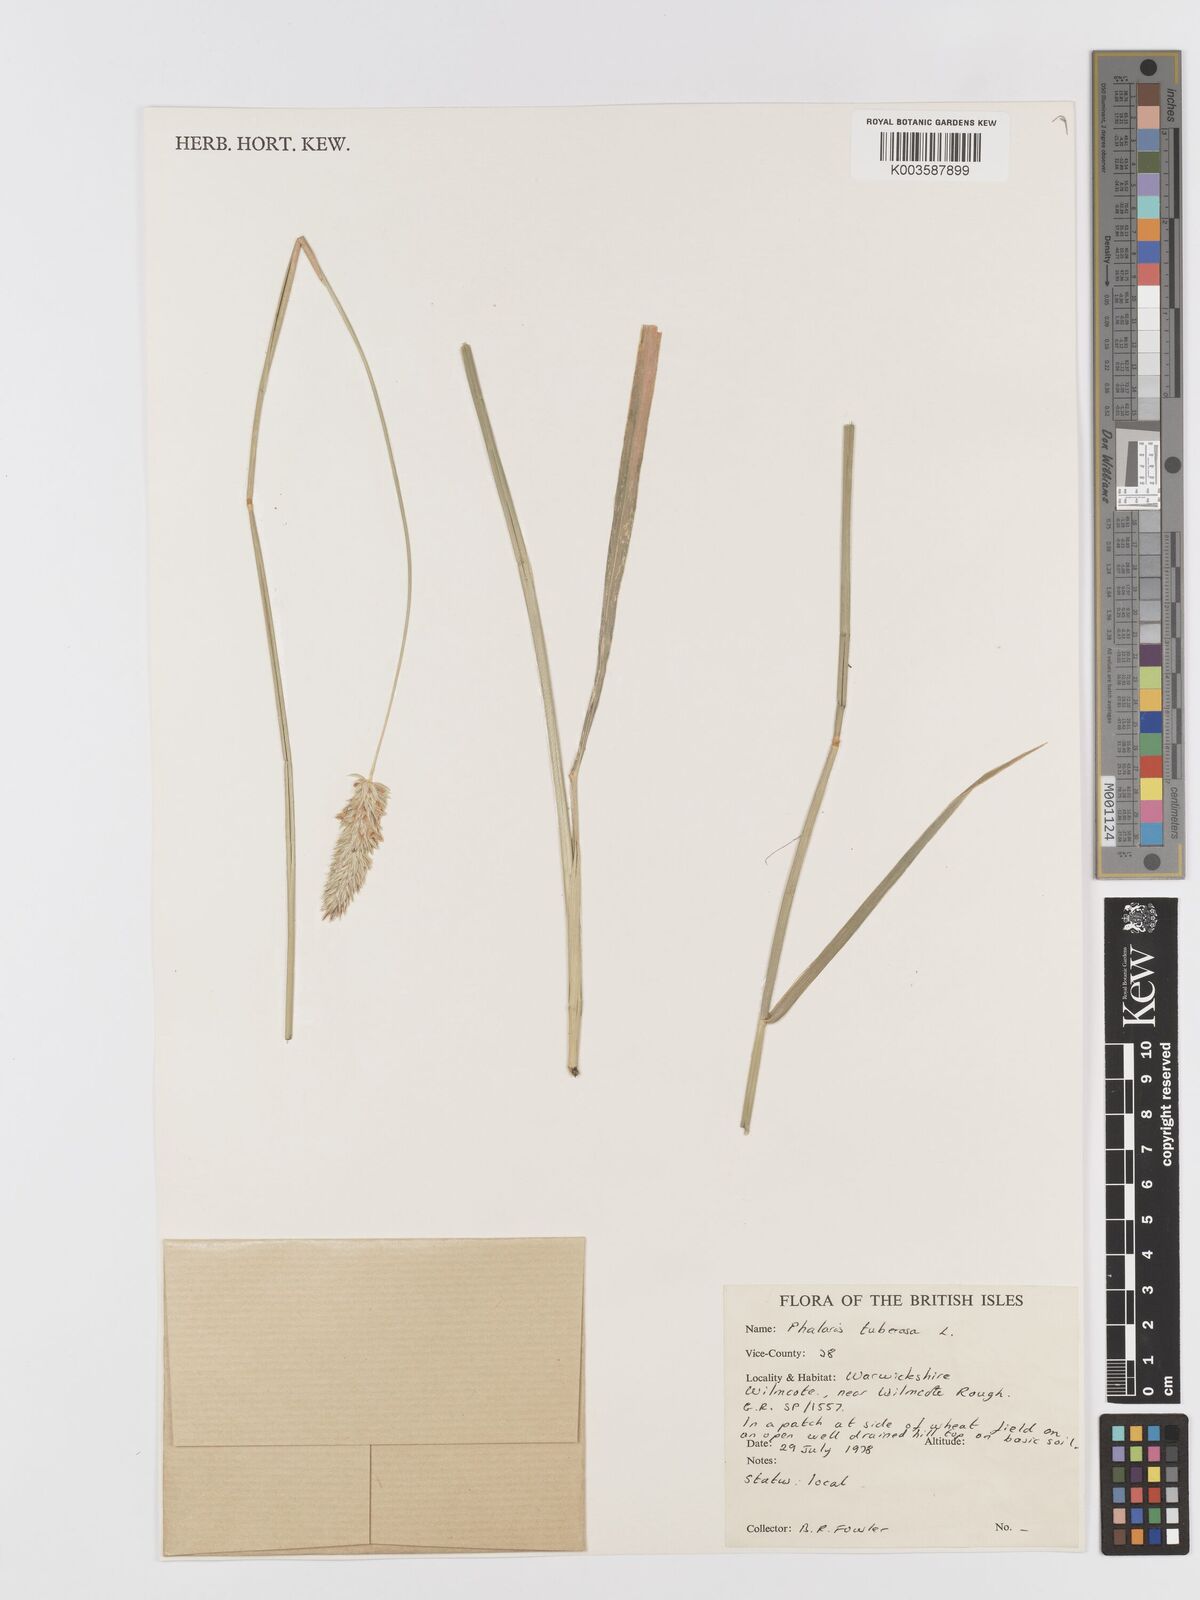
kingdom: Plantae
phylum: Tracheophyta
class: Liliopsida
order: Poales
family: Poaceae
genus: Phalaris
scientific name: Phalaris
